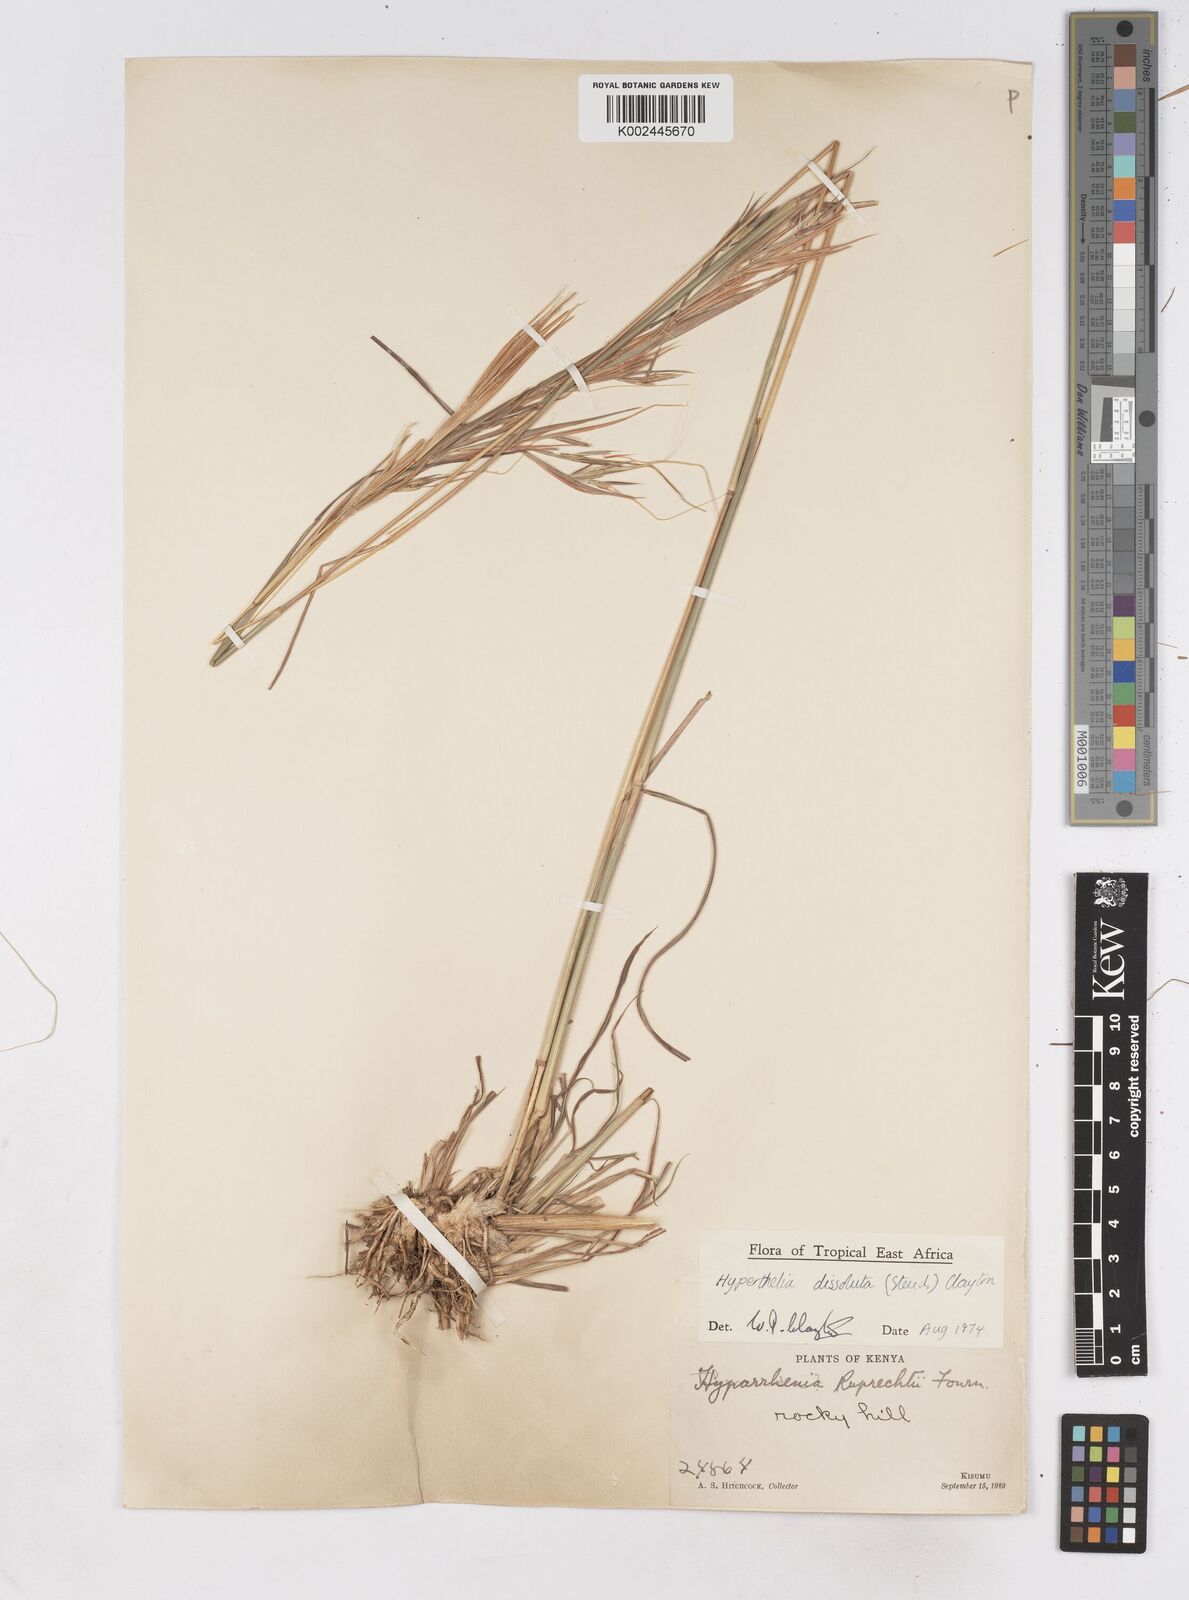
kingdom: Plantae
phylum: Tracheophyta
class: Liliopsida
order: Poales
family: Poaceae
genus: Hyperthelia
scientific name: Hyperthelia dissoluta
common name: Yellow thatching grass
